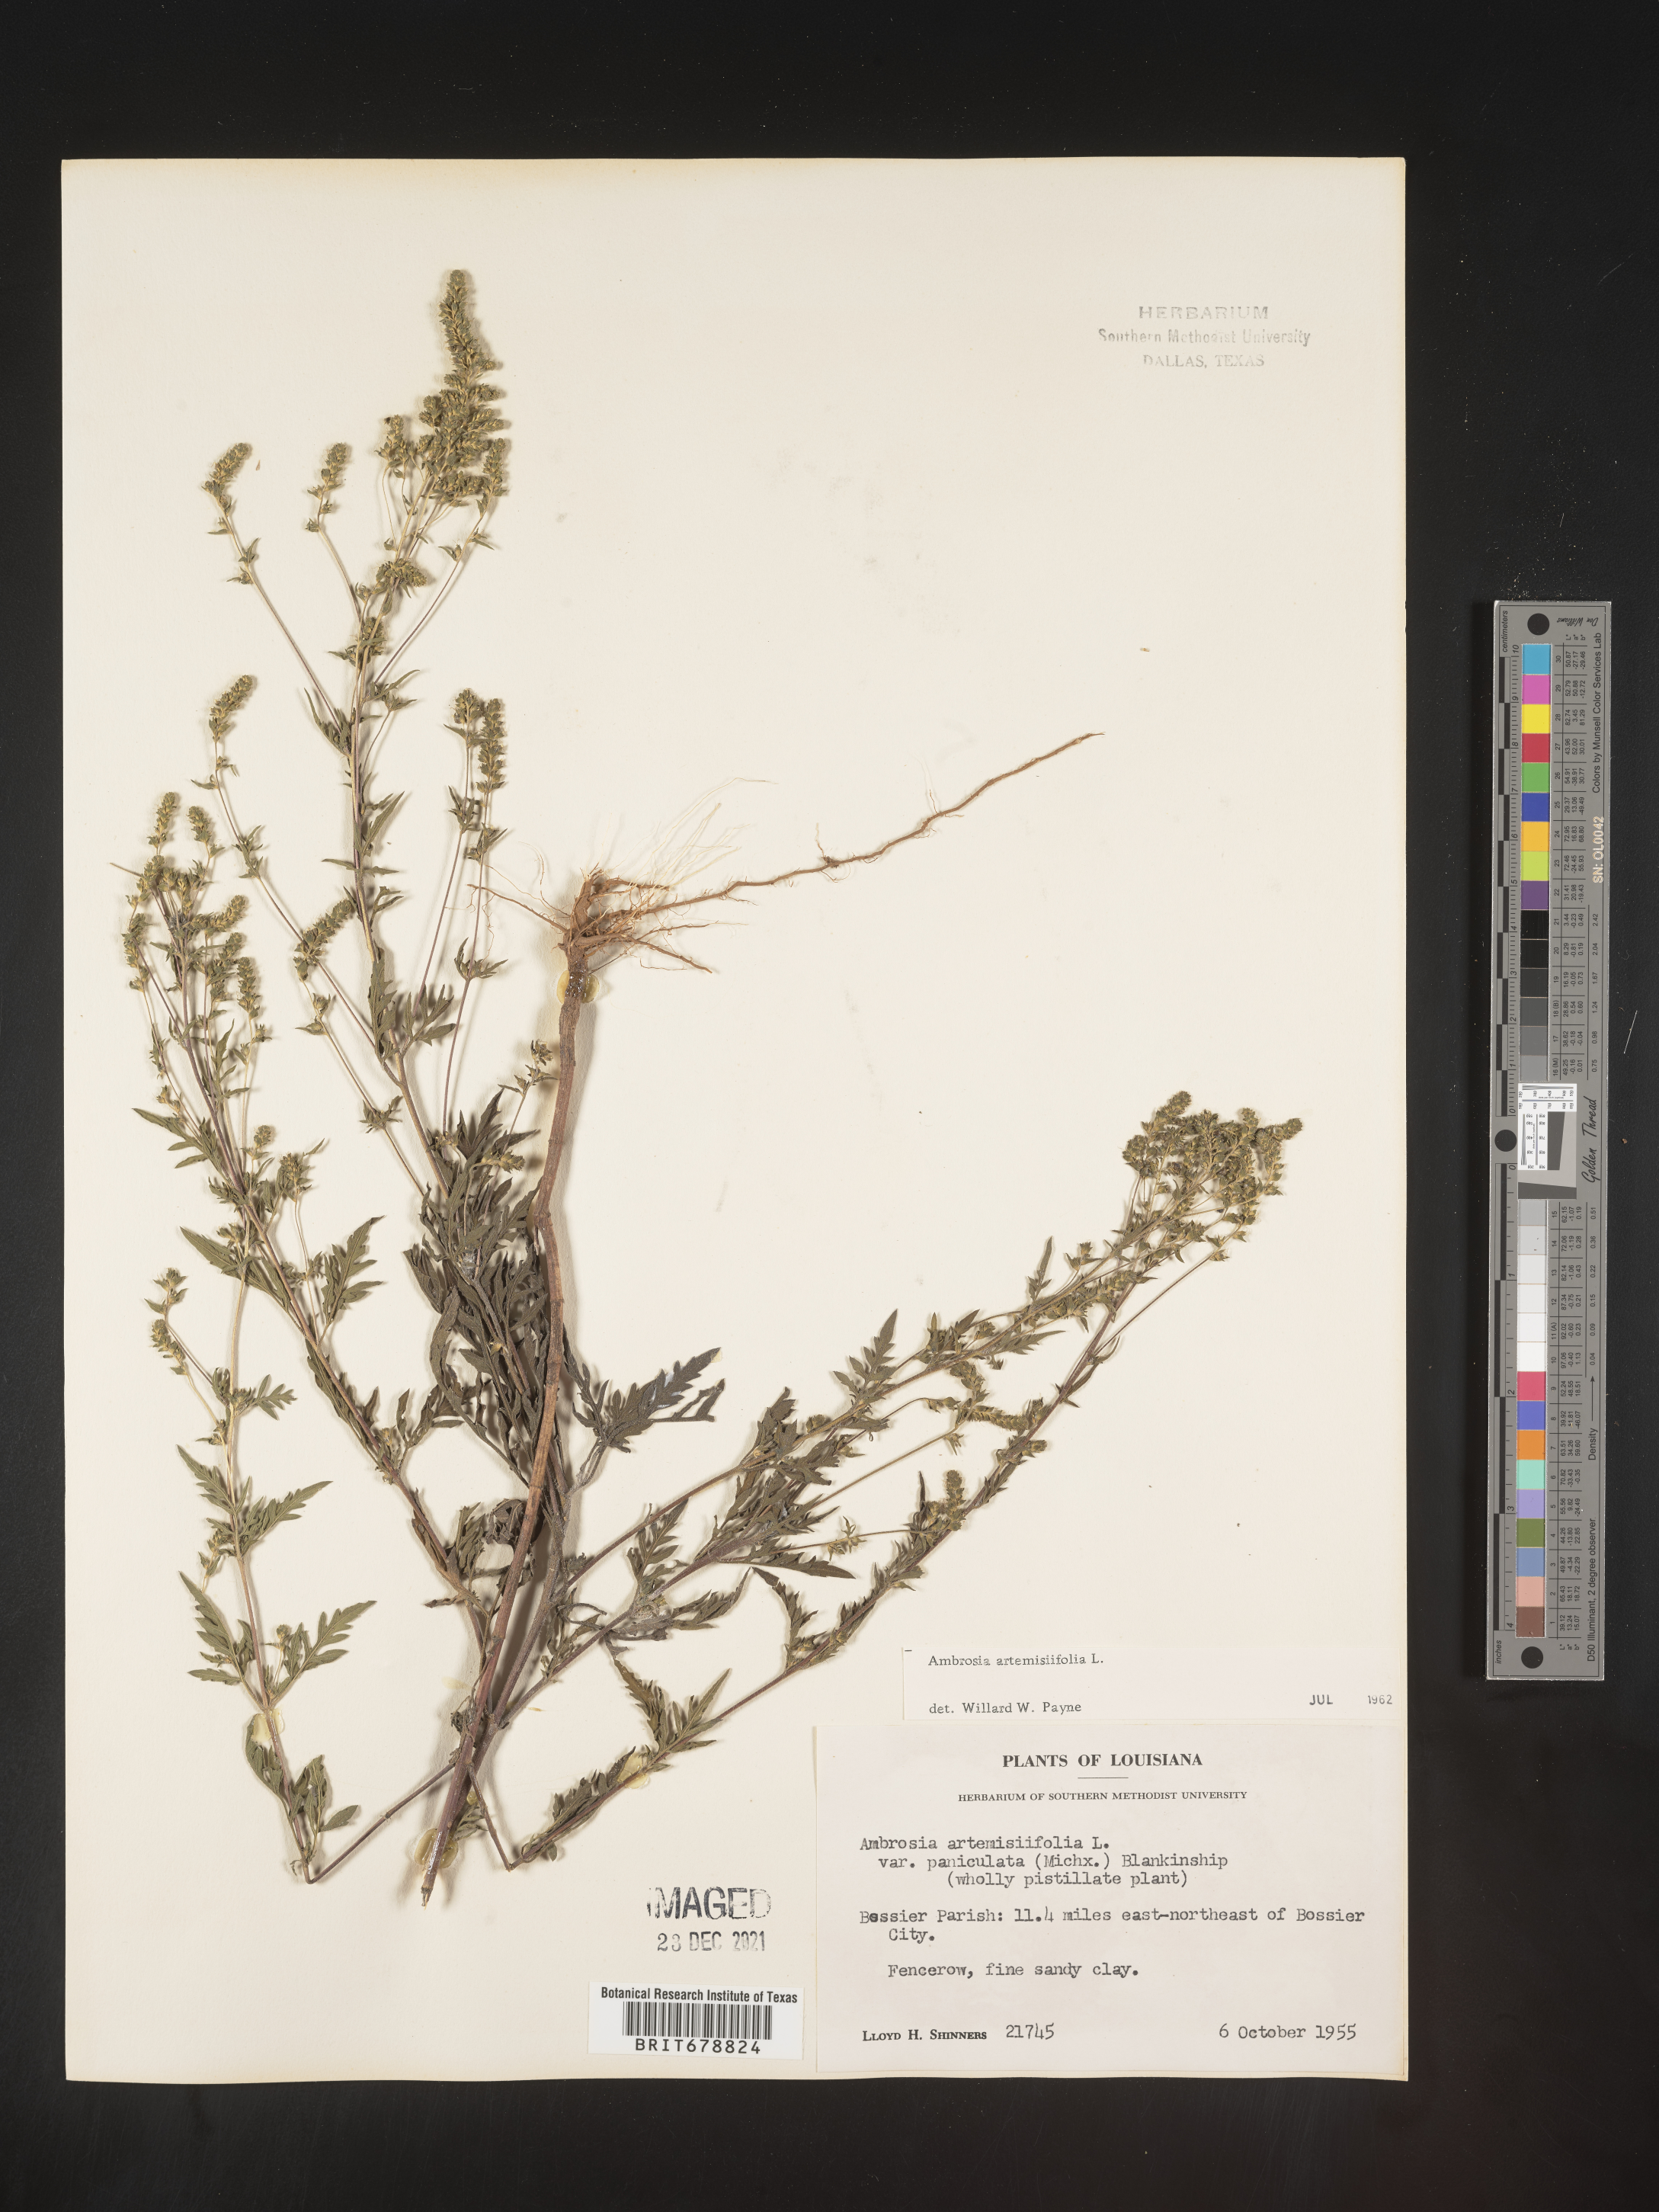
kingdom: Plantae
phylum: Tracheophyta
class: Magnoliopsida
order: Asterales
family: Asteraceae
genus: Ambrosia
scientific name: Ambrosia artemisiifolia
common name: Annual ragweed
